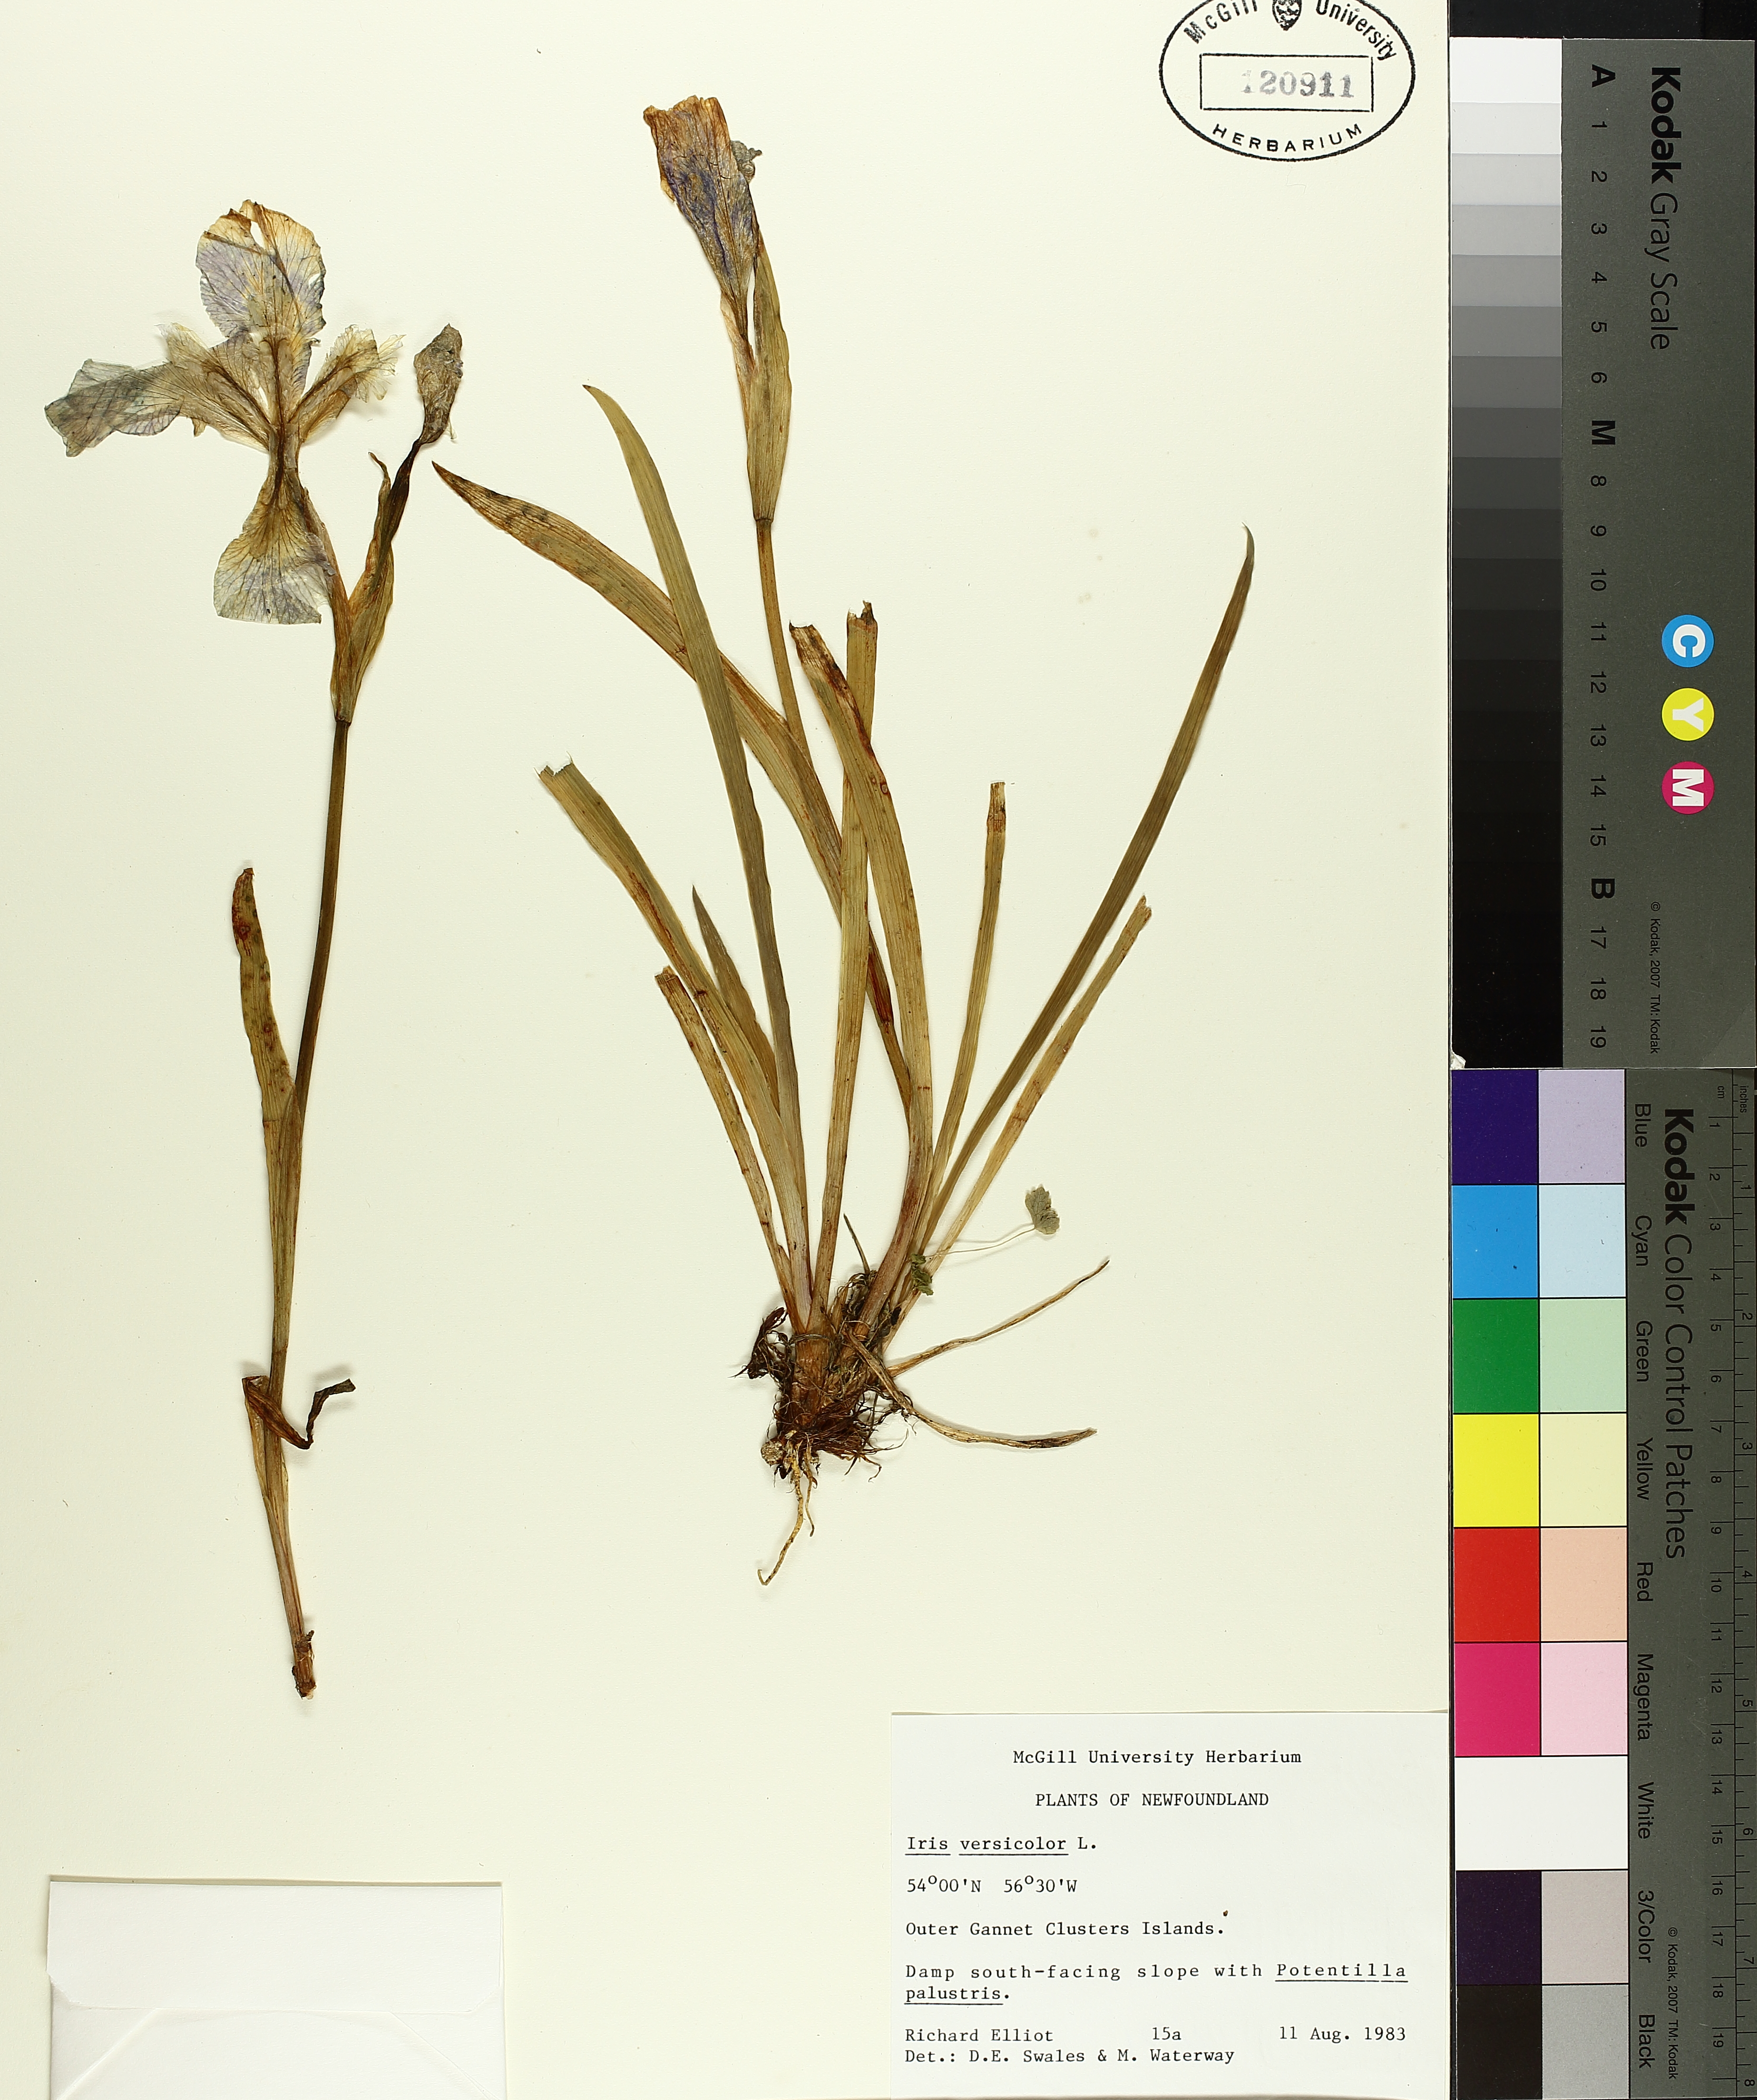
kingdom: Plantae
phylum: Tracheophyta
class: Liliopsida
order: Asparagales
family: Iridaceae
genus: Iris
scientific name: Iris versicolor
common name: Purple iris
